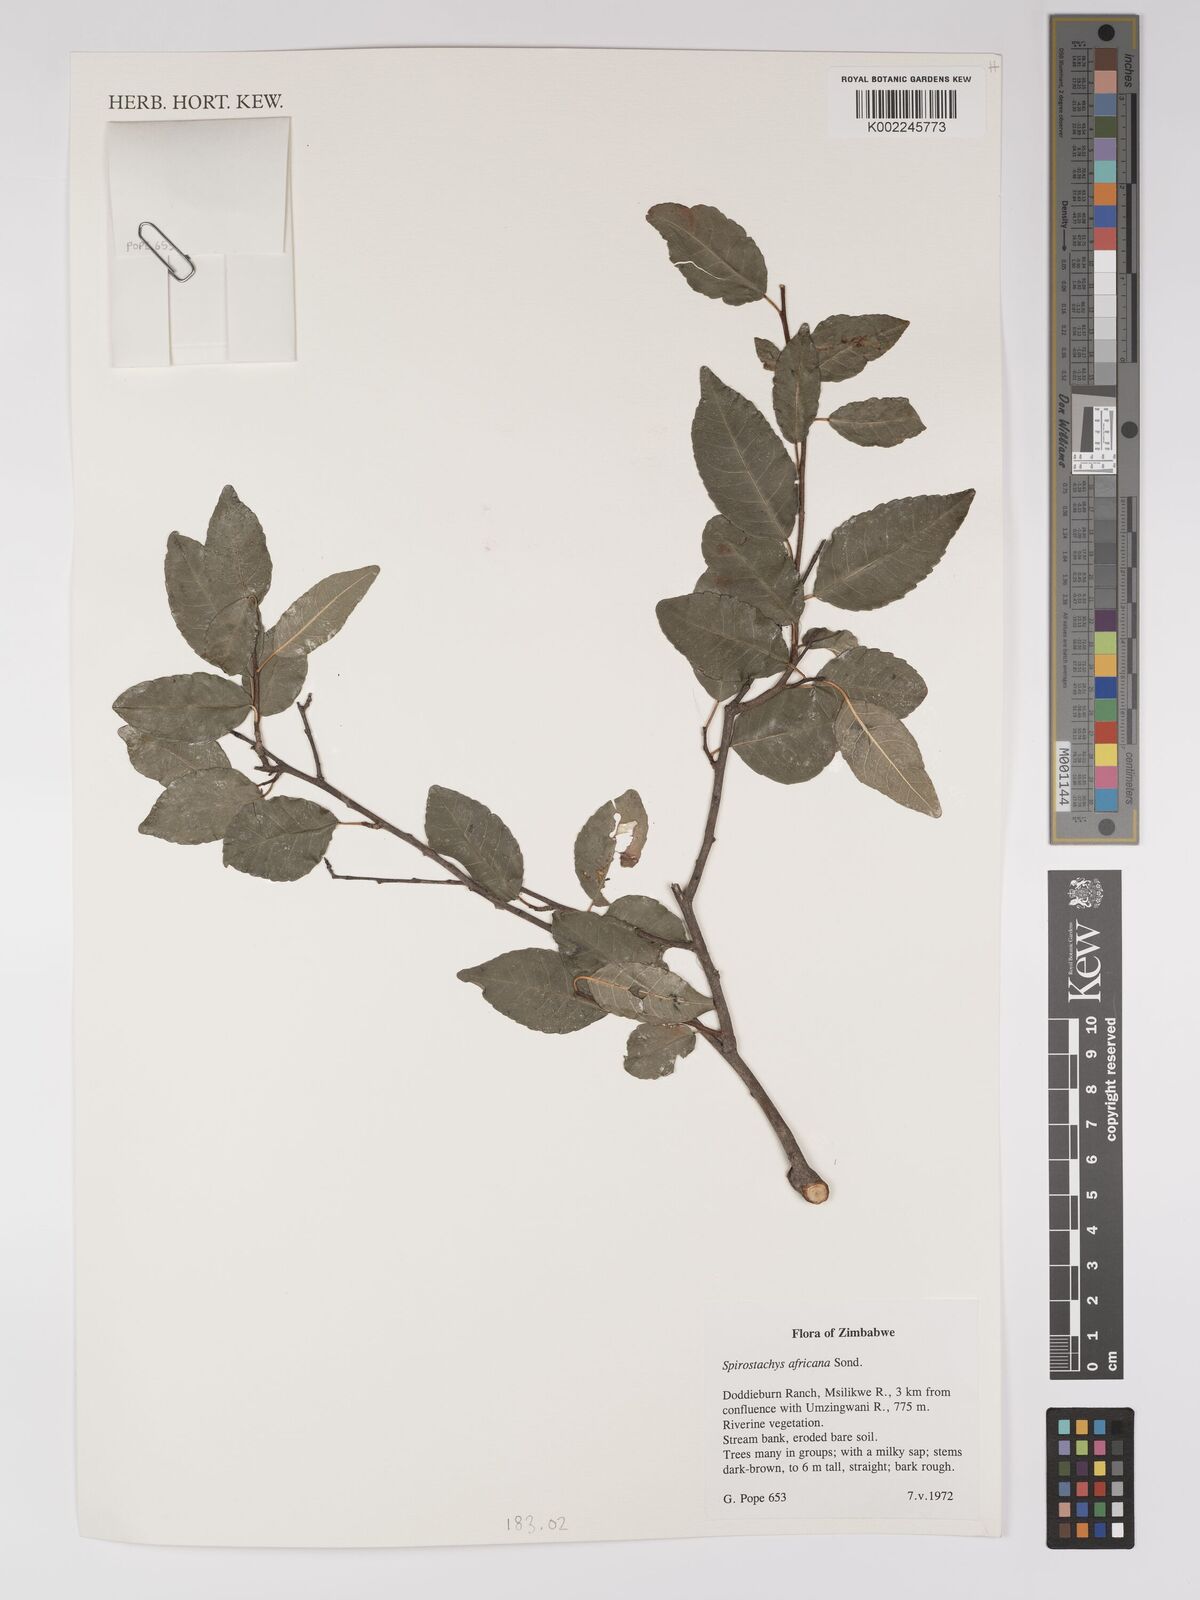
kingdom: Plantae
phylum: Tracheophyta
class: Magnoliopsida
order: Malpighiales
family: Euphorbiaceae
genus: Spirostachys
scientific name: Spirostachys africana
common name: Tamboti
